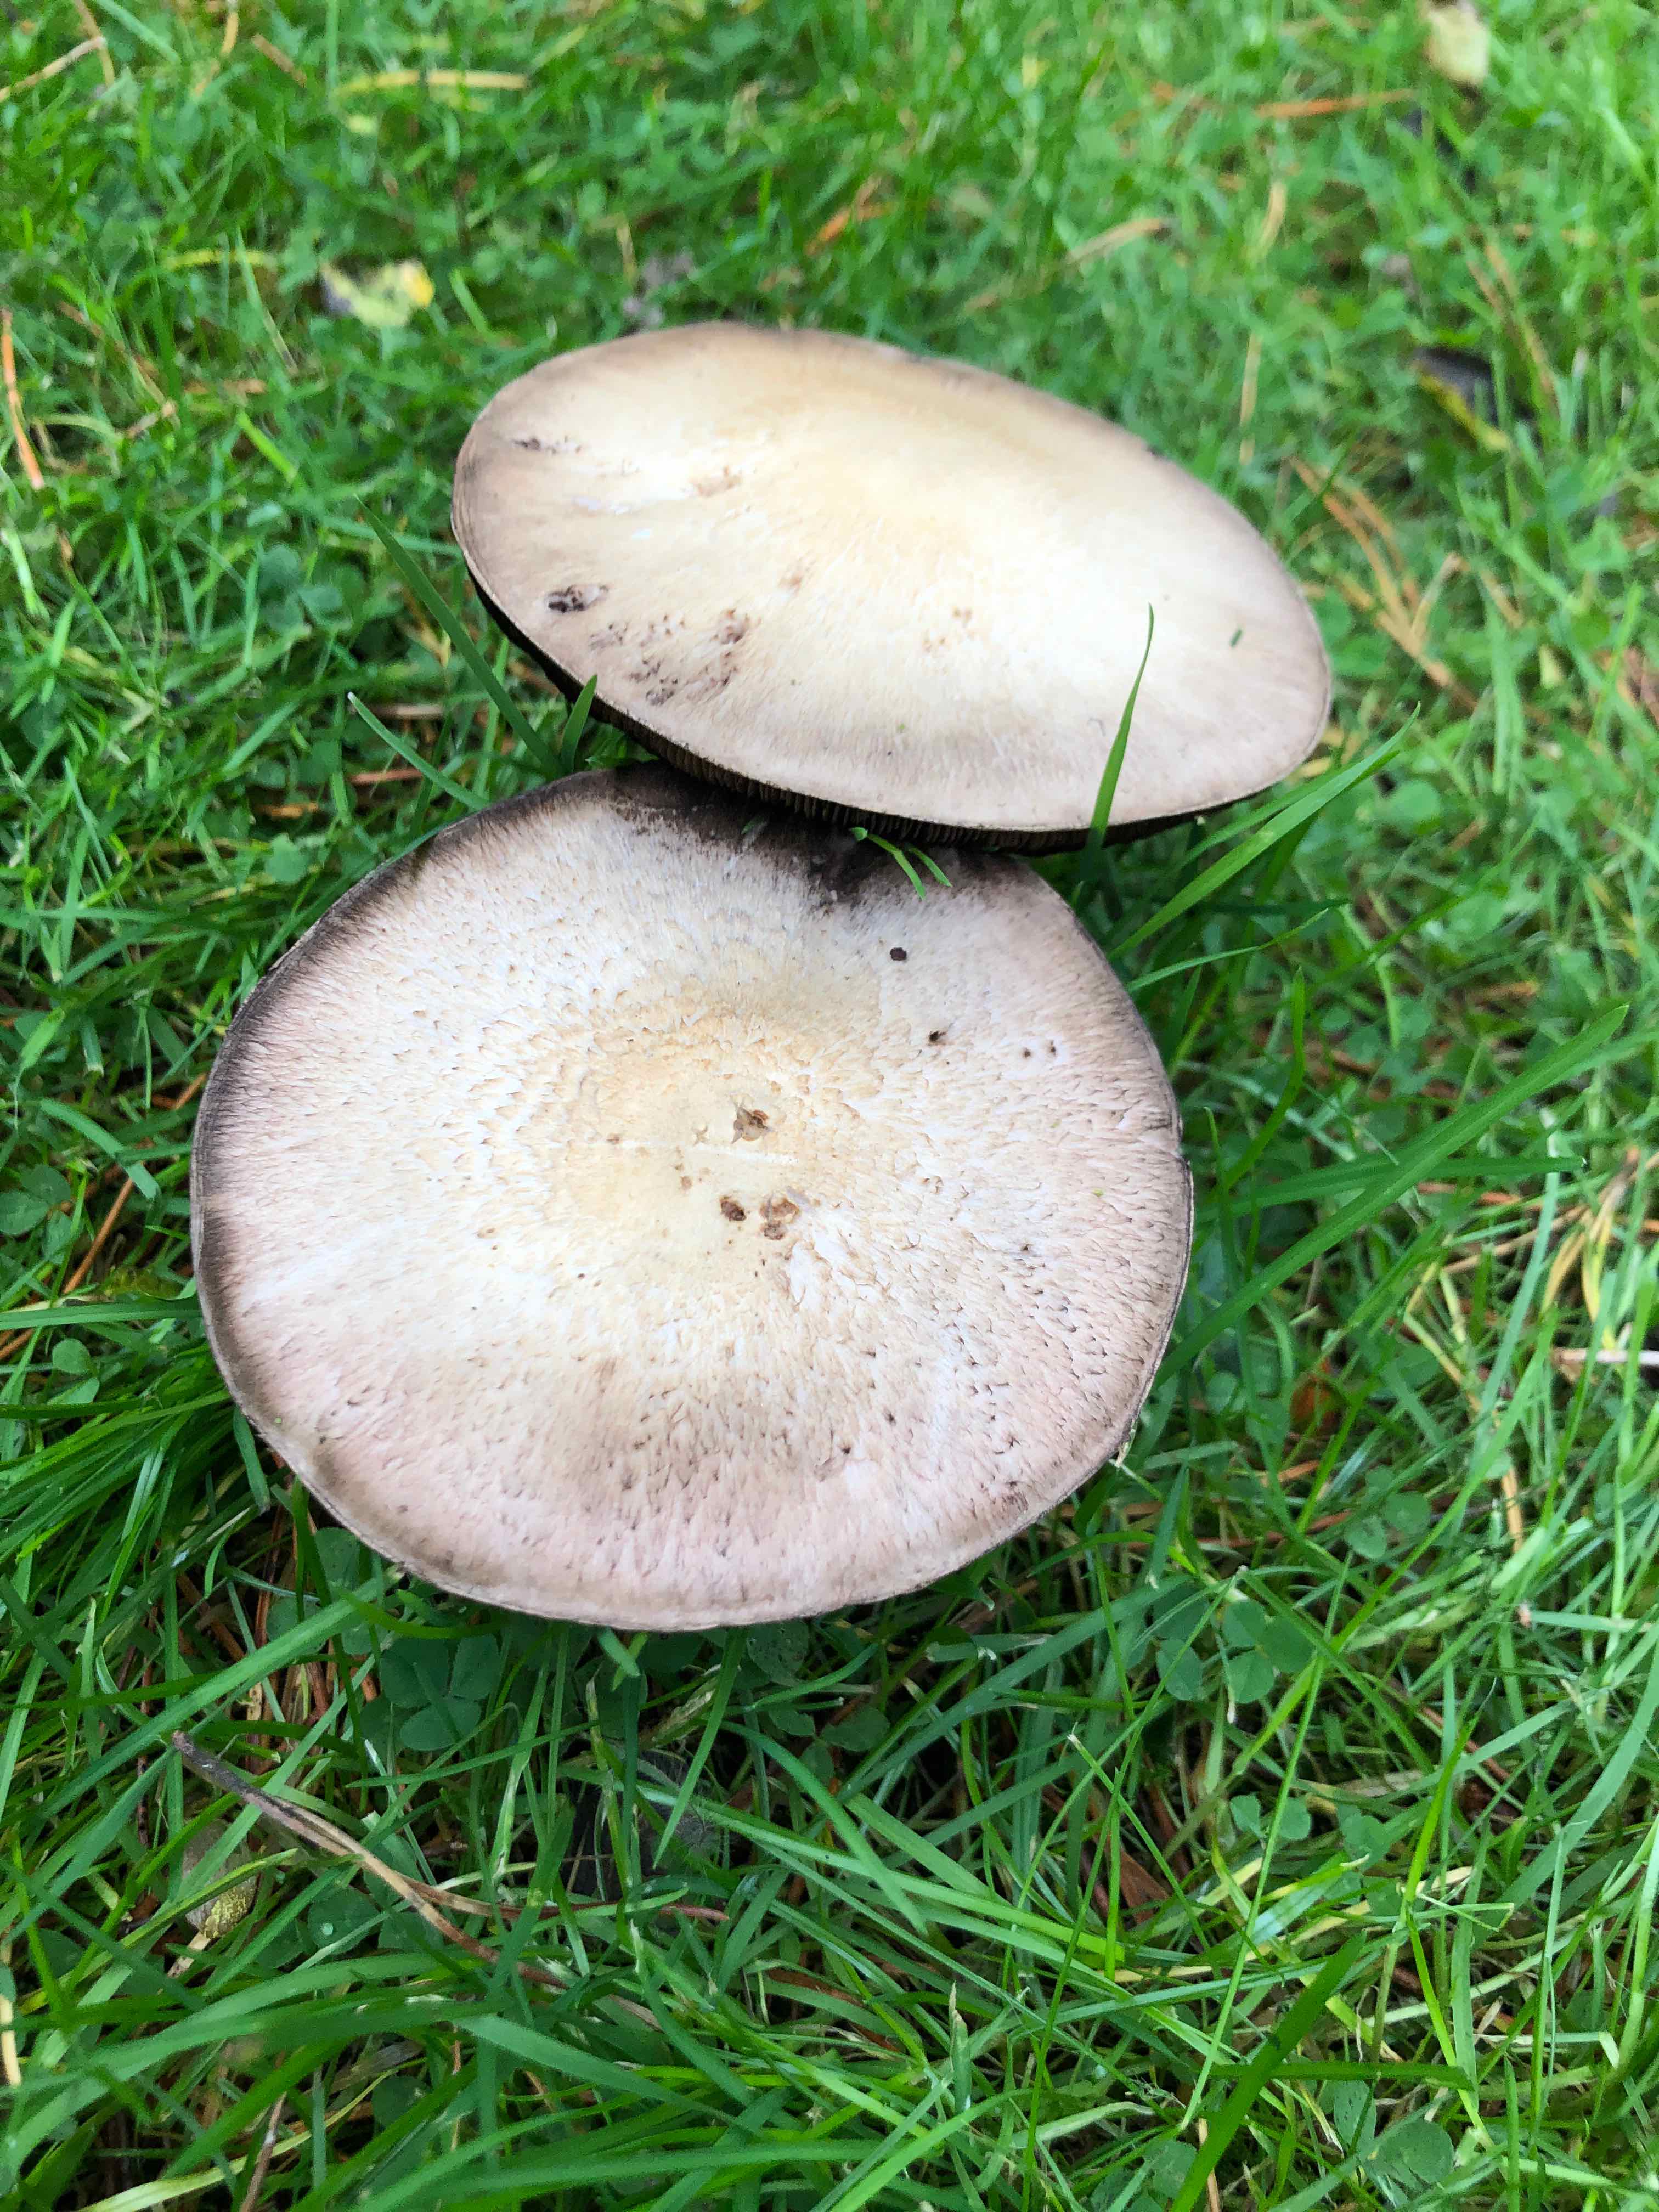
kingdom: Fungi
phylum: Basidiomycota
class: Agaricomycetes
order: Agaricales
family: Agaricaceae
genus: Agaricus
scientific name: Agaricus
